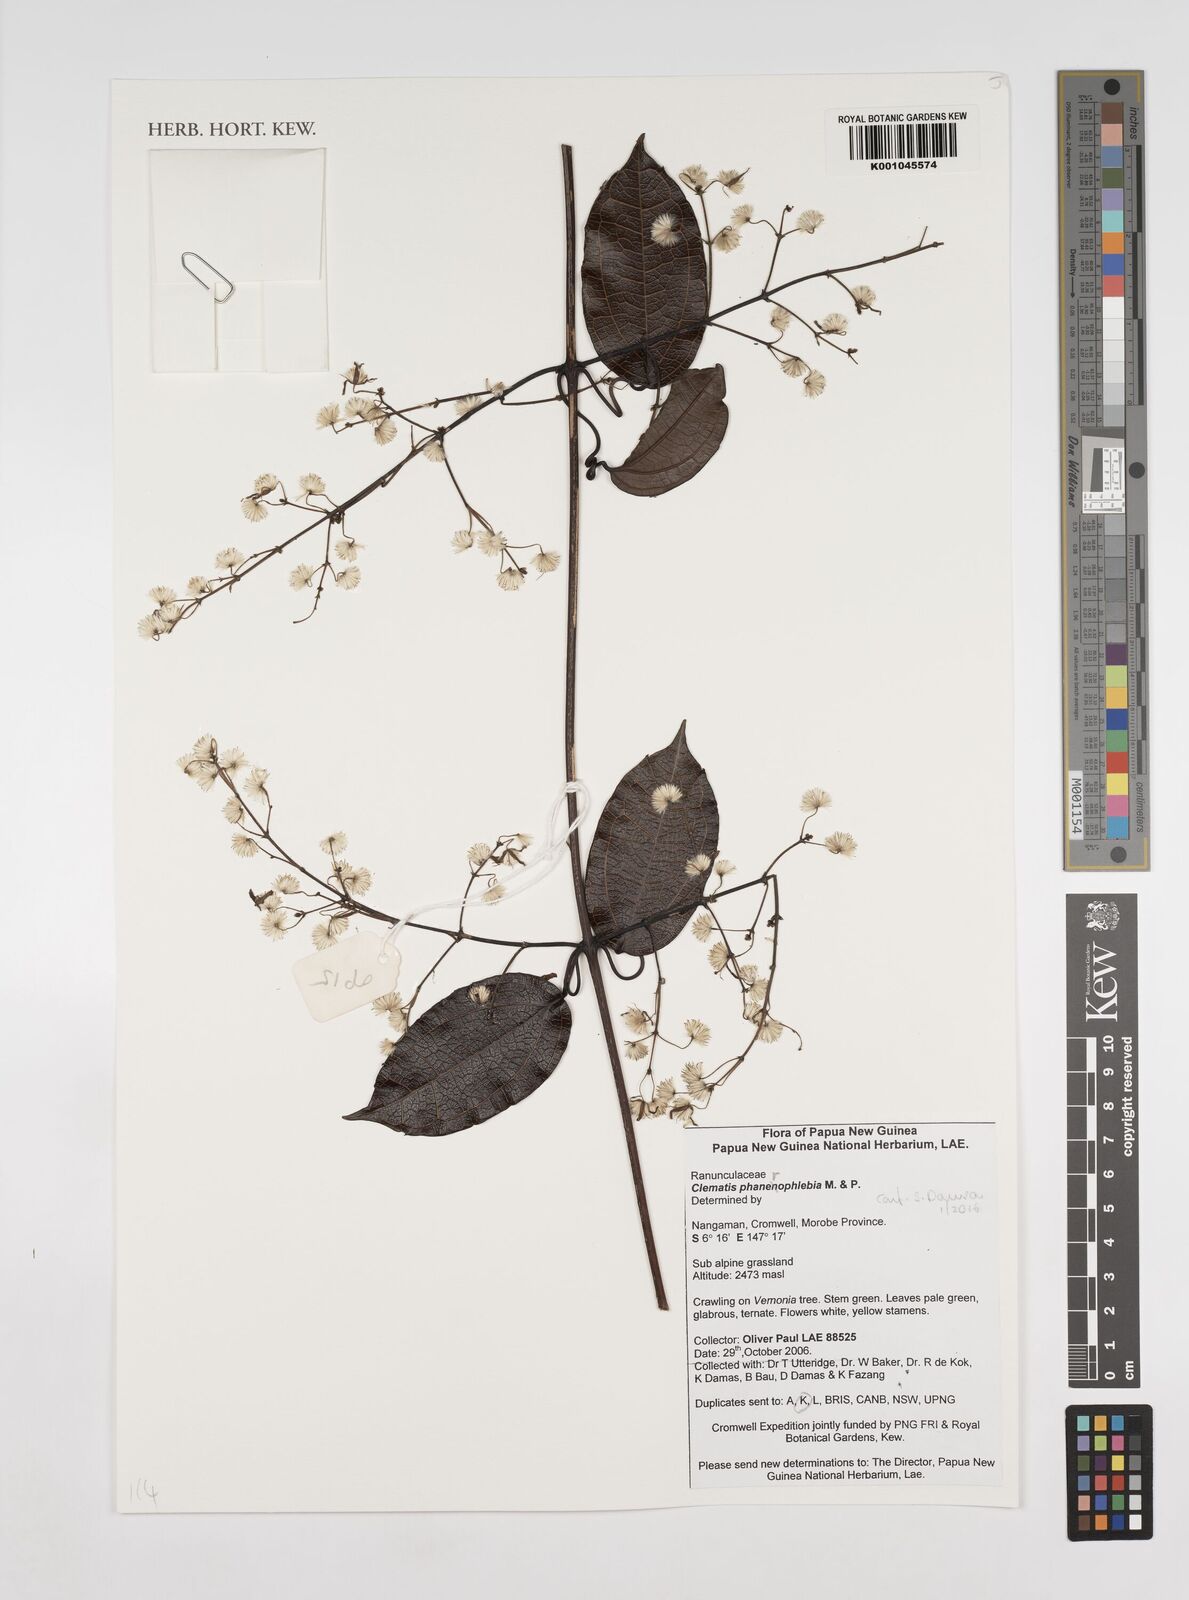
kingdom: Plantae
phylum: Tracheophyta
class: Magnoliopsida
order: Ranunculales
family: Ranunculaceae
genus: Clematis
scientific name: Clematis phanerophlebia
